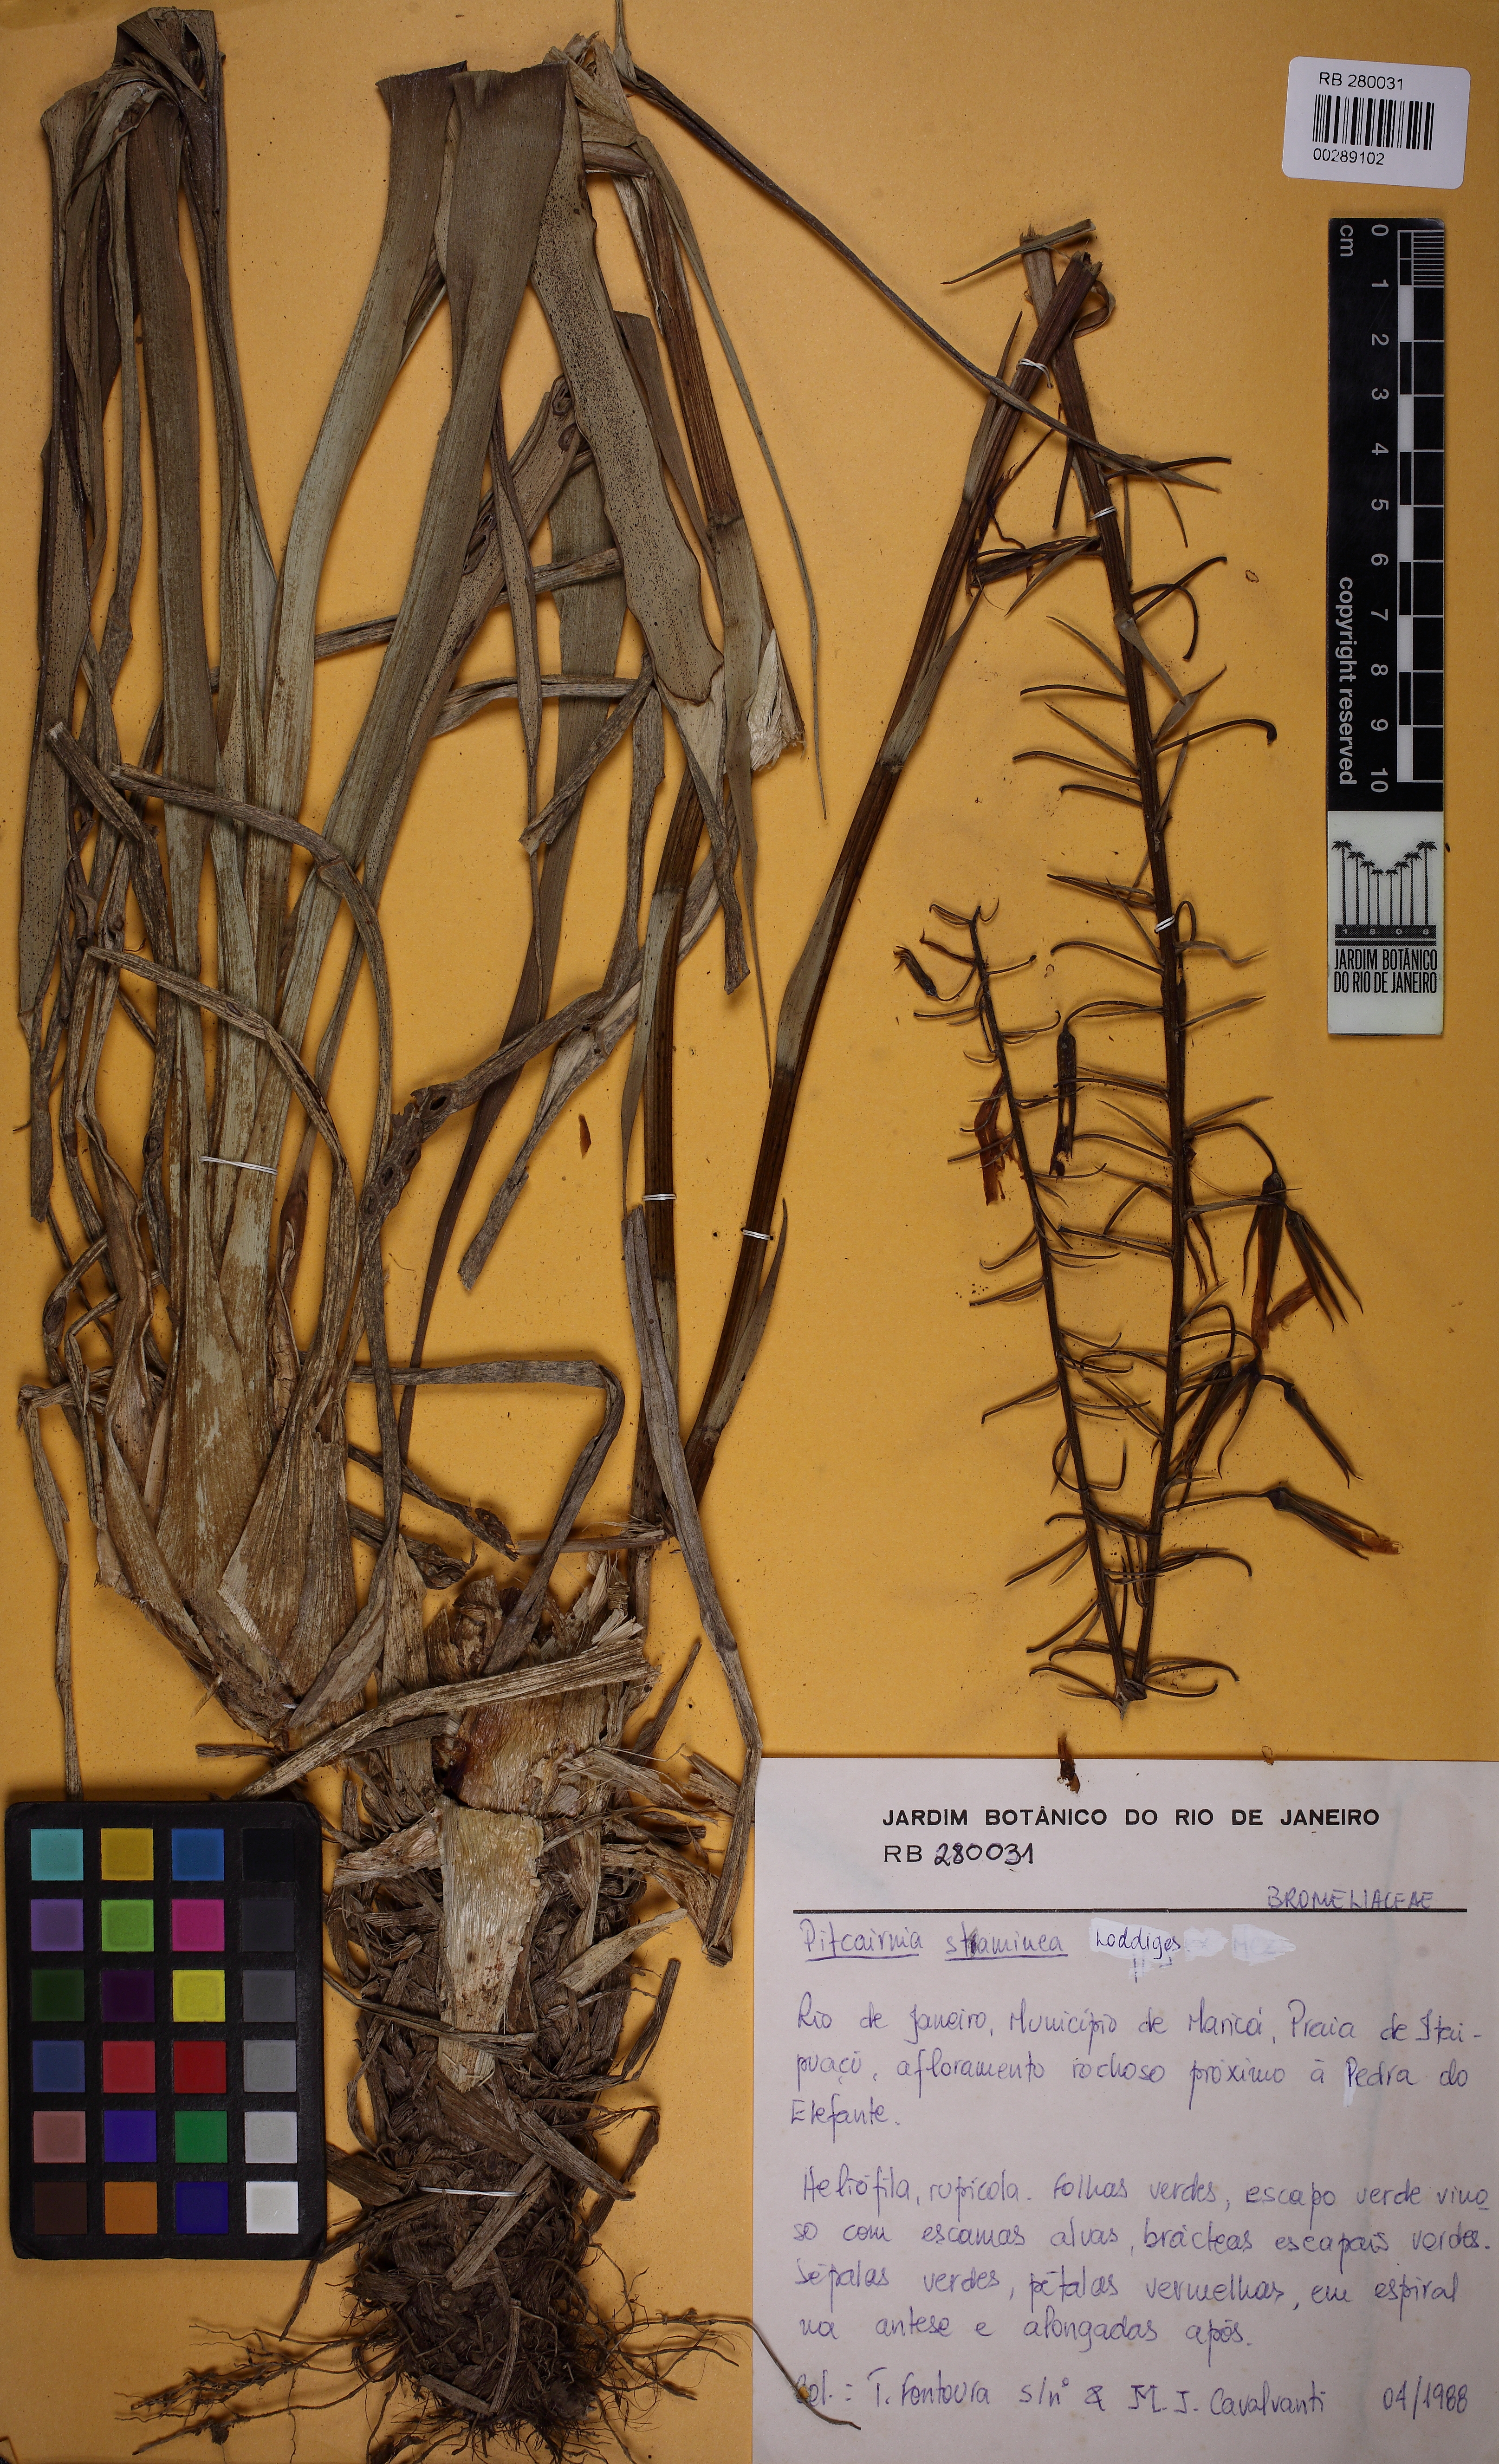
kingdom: Plantae
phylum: Tracheophyta
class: Liliopsida
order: Poales
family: Bromeliaceae
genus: Pitcairnia
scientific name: Pitcairnia staminea
